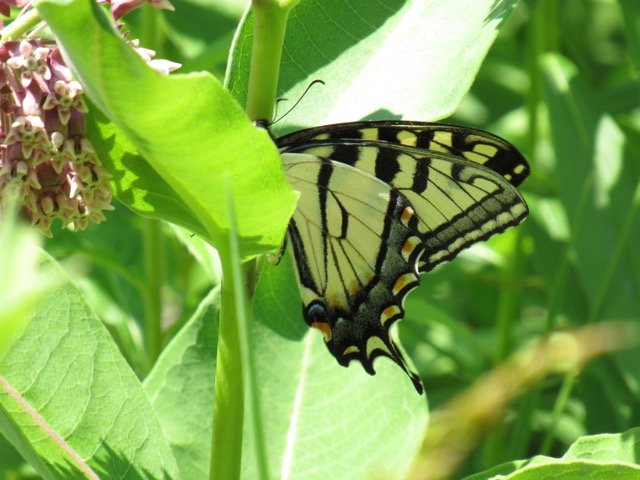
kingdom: Animalia
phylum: Arthropoda
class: Insecta
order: Lepidoptera
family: Papilionidae
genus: Pterourus
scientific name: Pterourus
